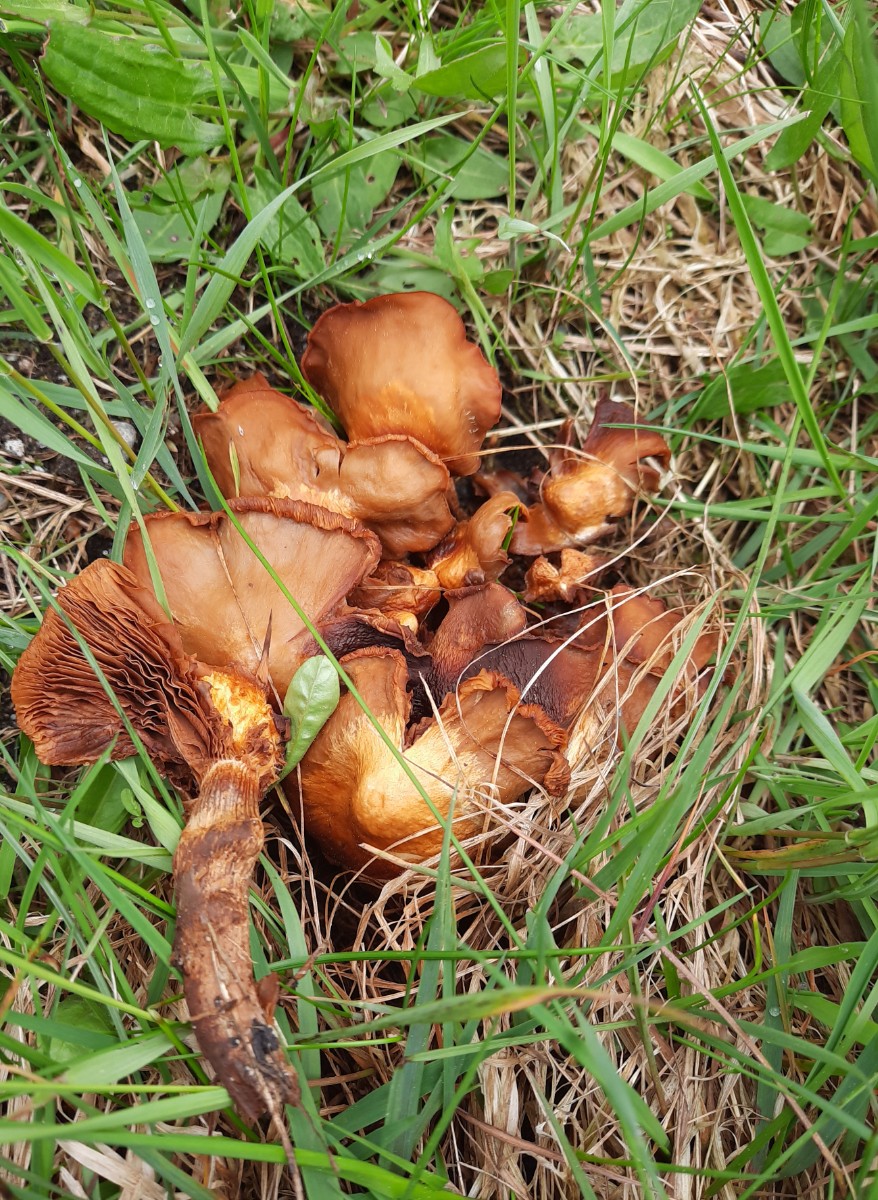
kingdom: Fungi
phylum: Basidiomycota
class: Agaricomycetes
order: Agaricales
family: Strophariaceae
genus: Kuehneromyces
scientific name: Kuehneromyces mutabilis
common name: foranderlig skælhat
